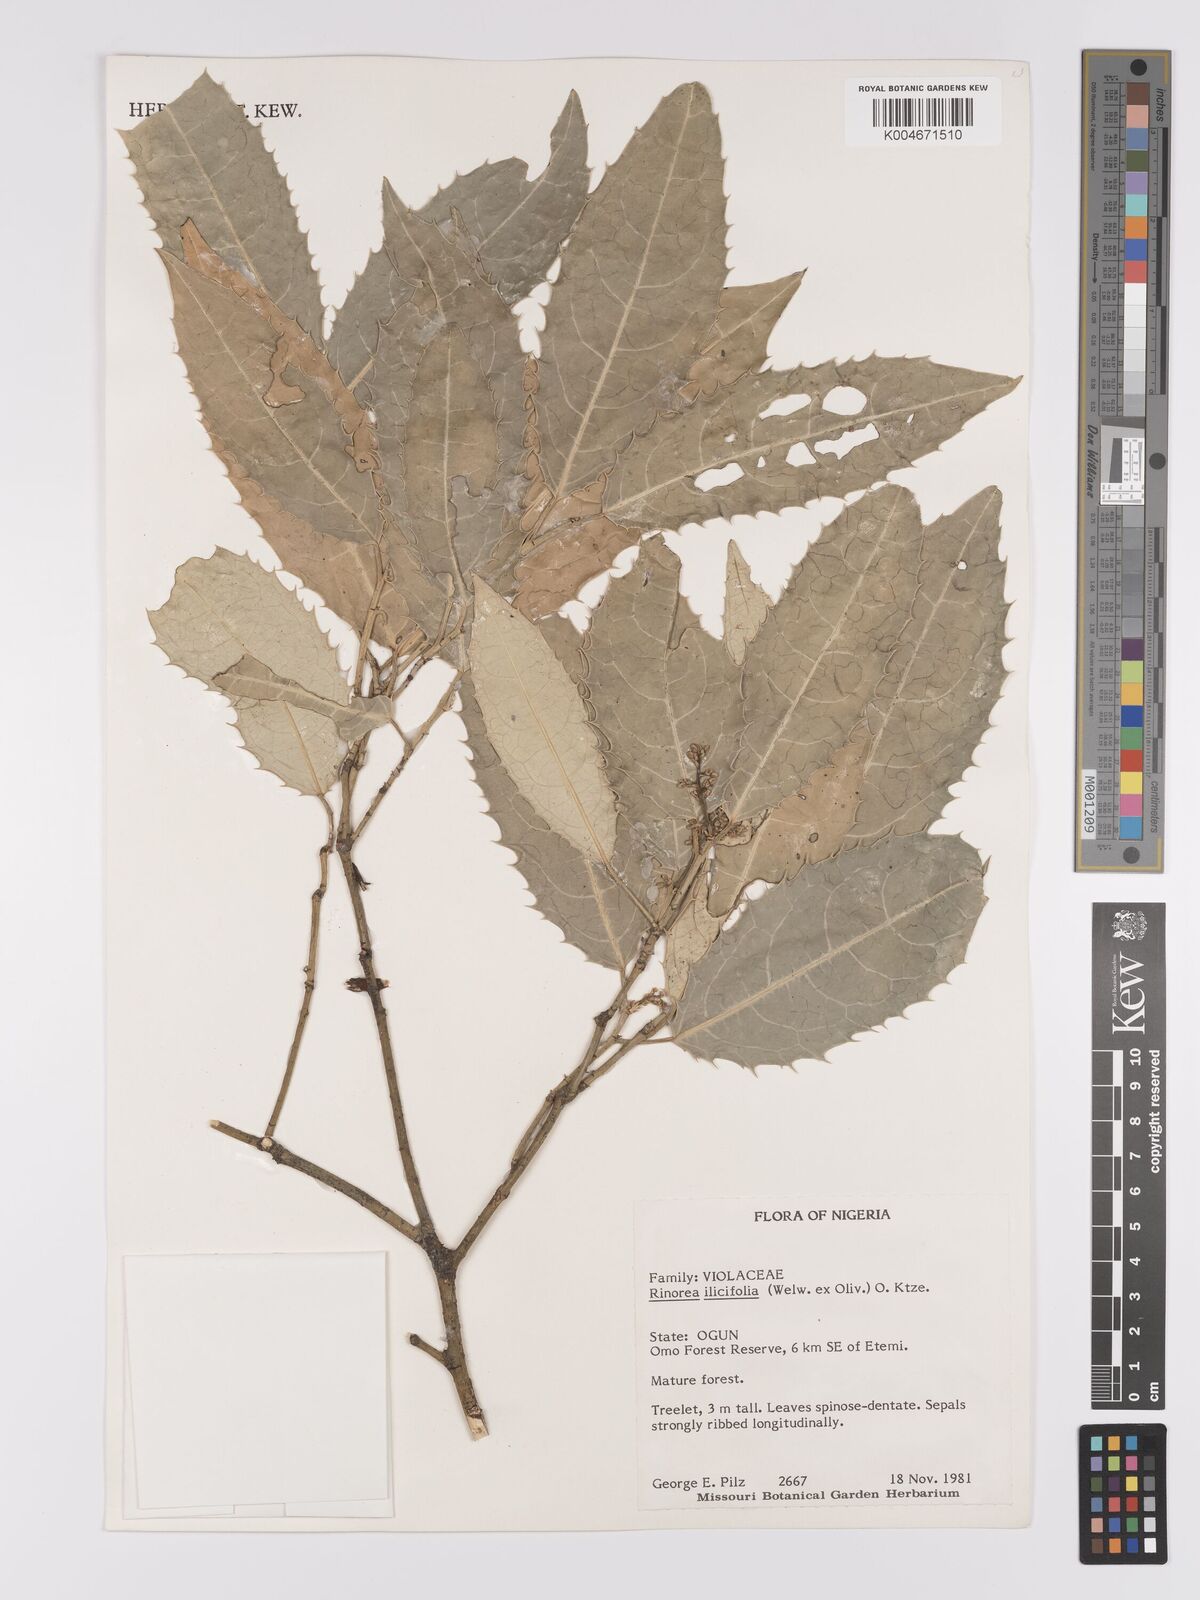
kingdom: Plantae
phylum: Tracheophyta
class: Magnoliopsida
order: Malpighiales
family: Violaceae
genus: Rinorea
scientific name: Rinorea ilicifolia
